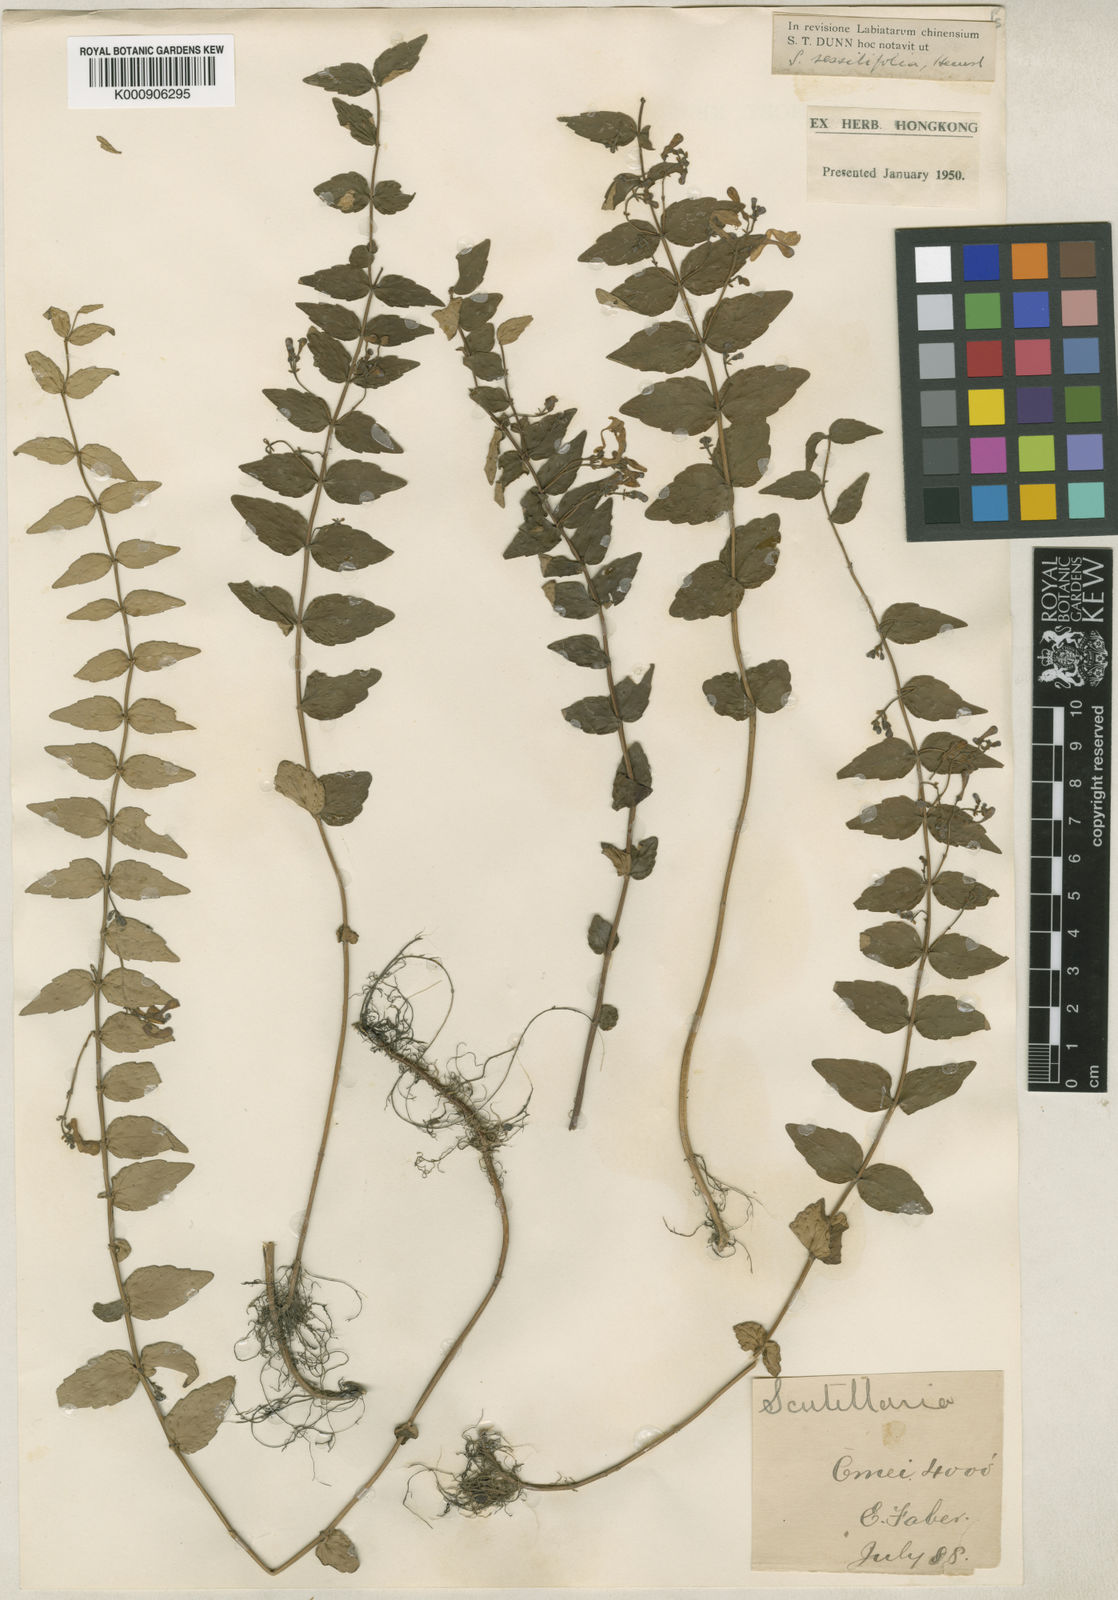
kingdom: Plantae
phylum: Tracheophyta
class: Magnoliopsida
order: Lamiales
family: Lamiaceae
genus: Scutellaria
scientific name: Scutellaria sessilifolia
